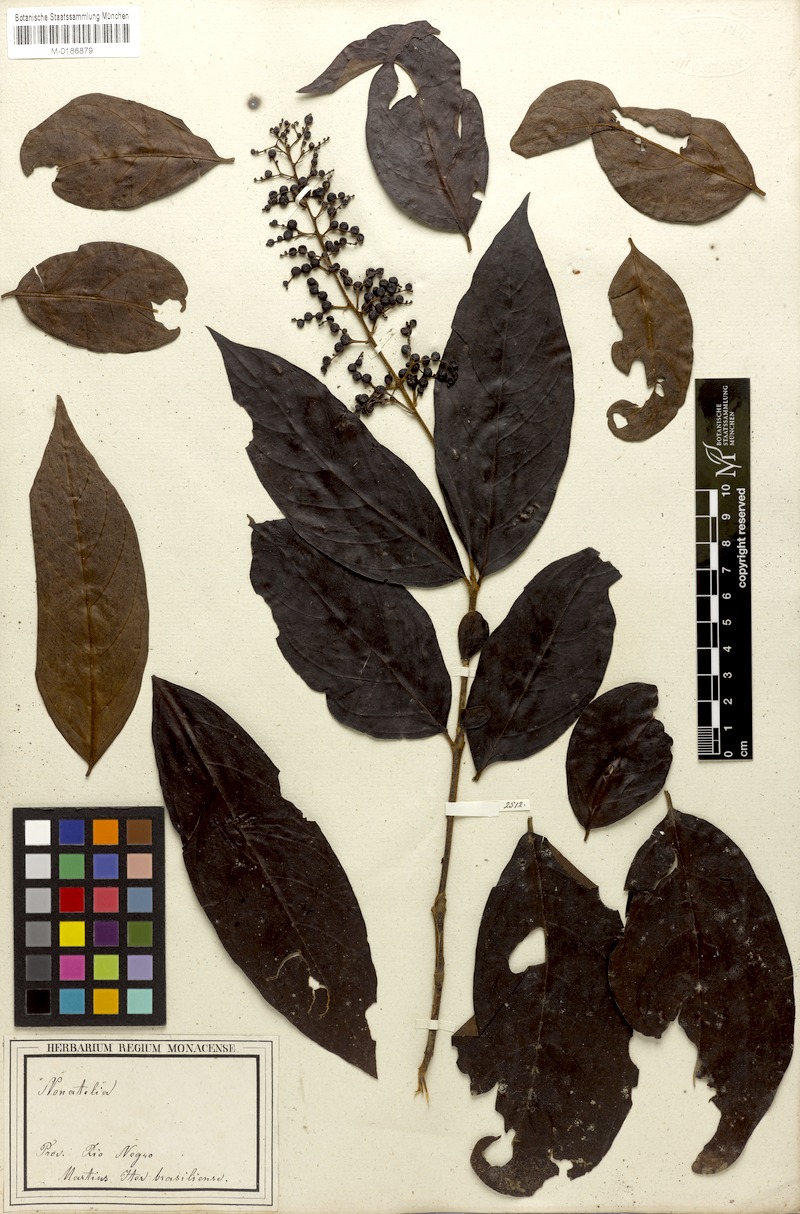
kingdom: Plantae
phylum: Tracheophyta
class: Magnoliopsida
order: Gentianales
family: Rubiaceae
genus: Bertiera
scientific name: Bertiera guianensis
